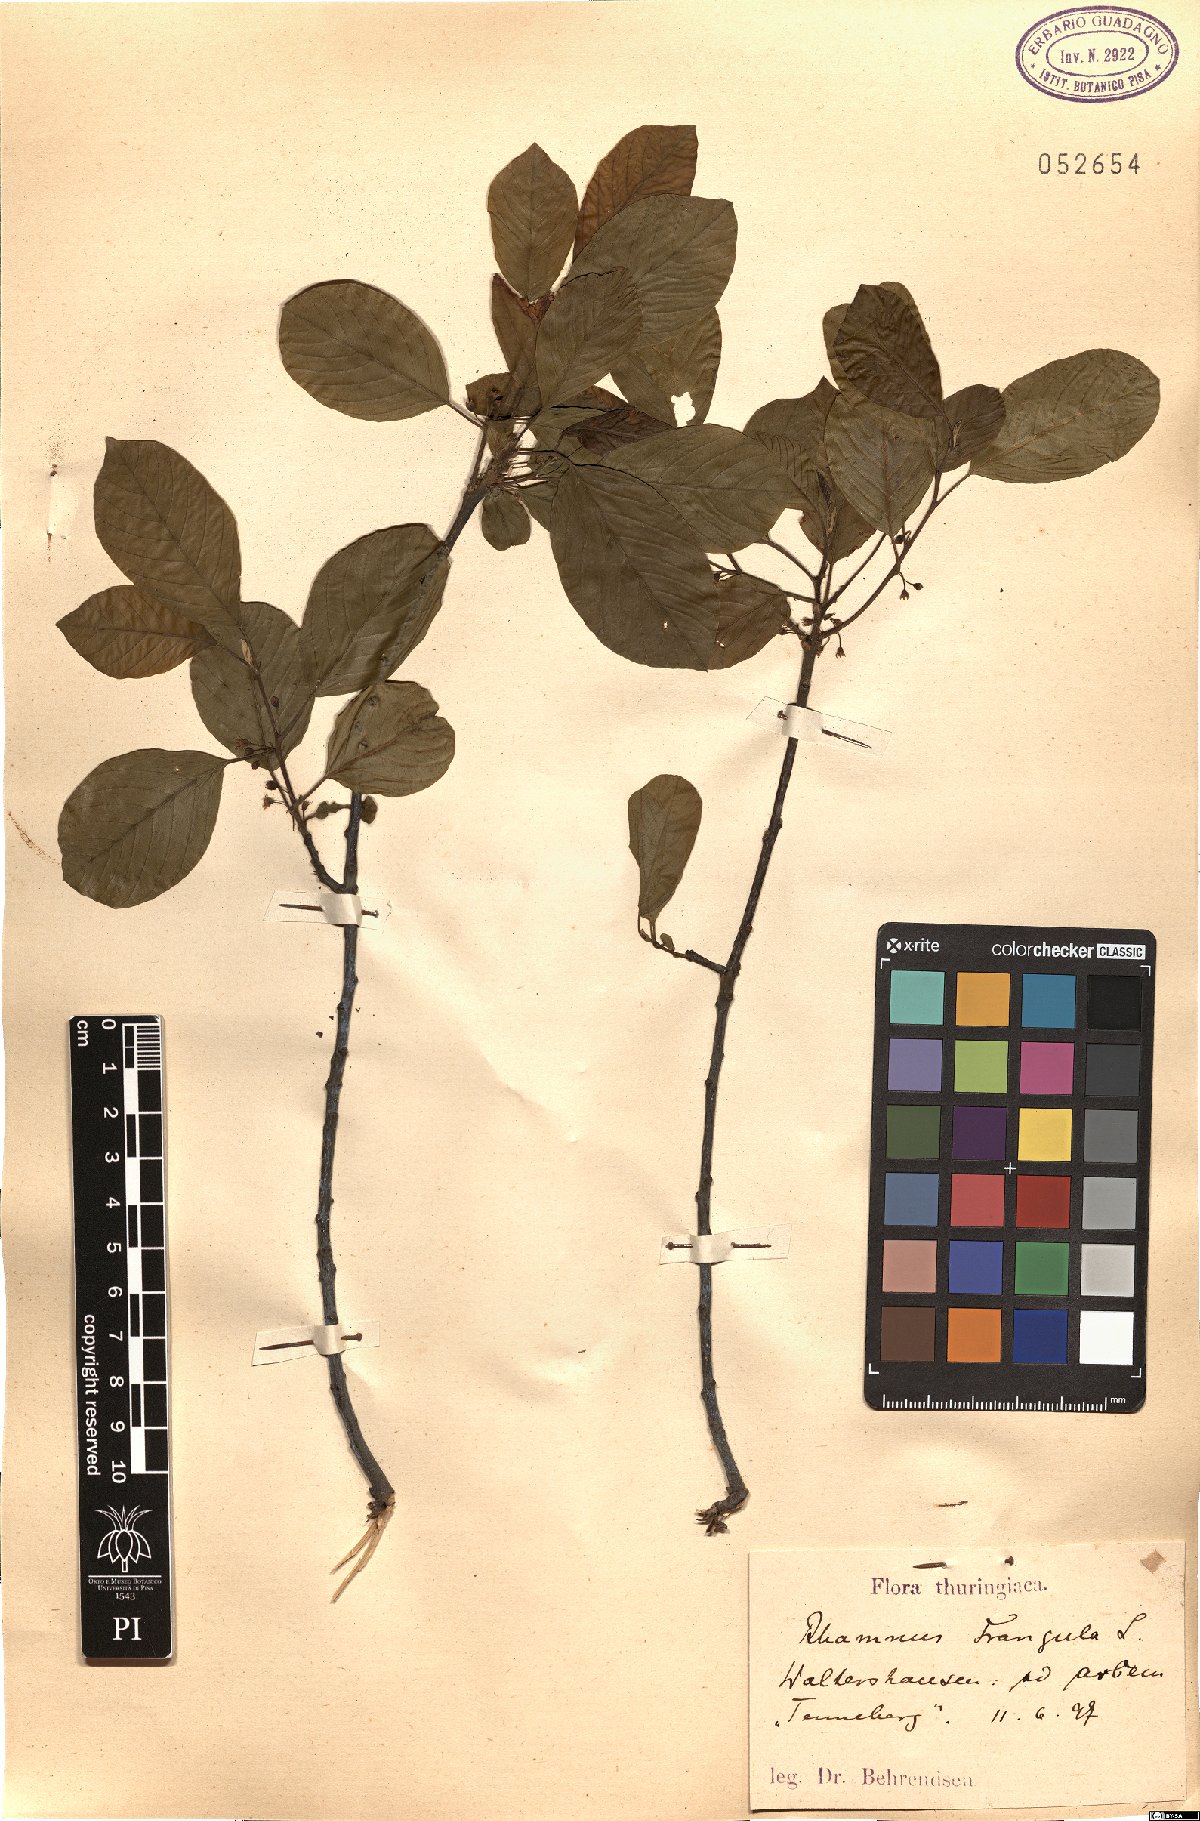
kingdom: Plantae
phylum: Tracheophyta
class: Magnoliopsida
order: Rosales
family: Rhamnaceae
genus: Frangula
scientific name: Frangula alnus
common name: Alder buckthorn
